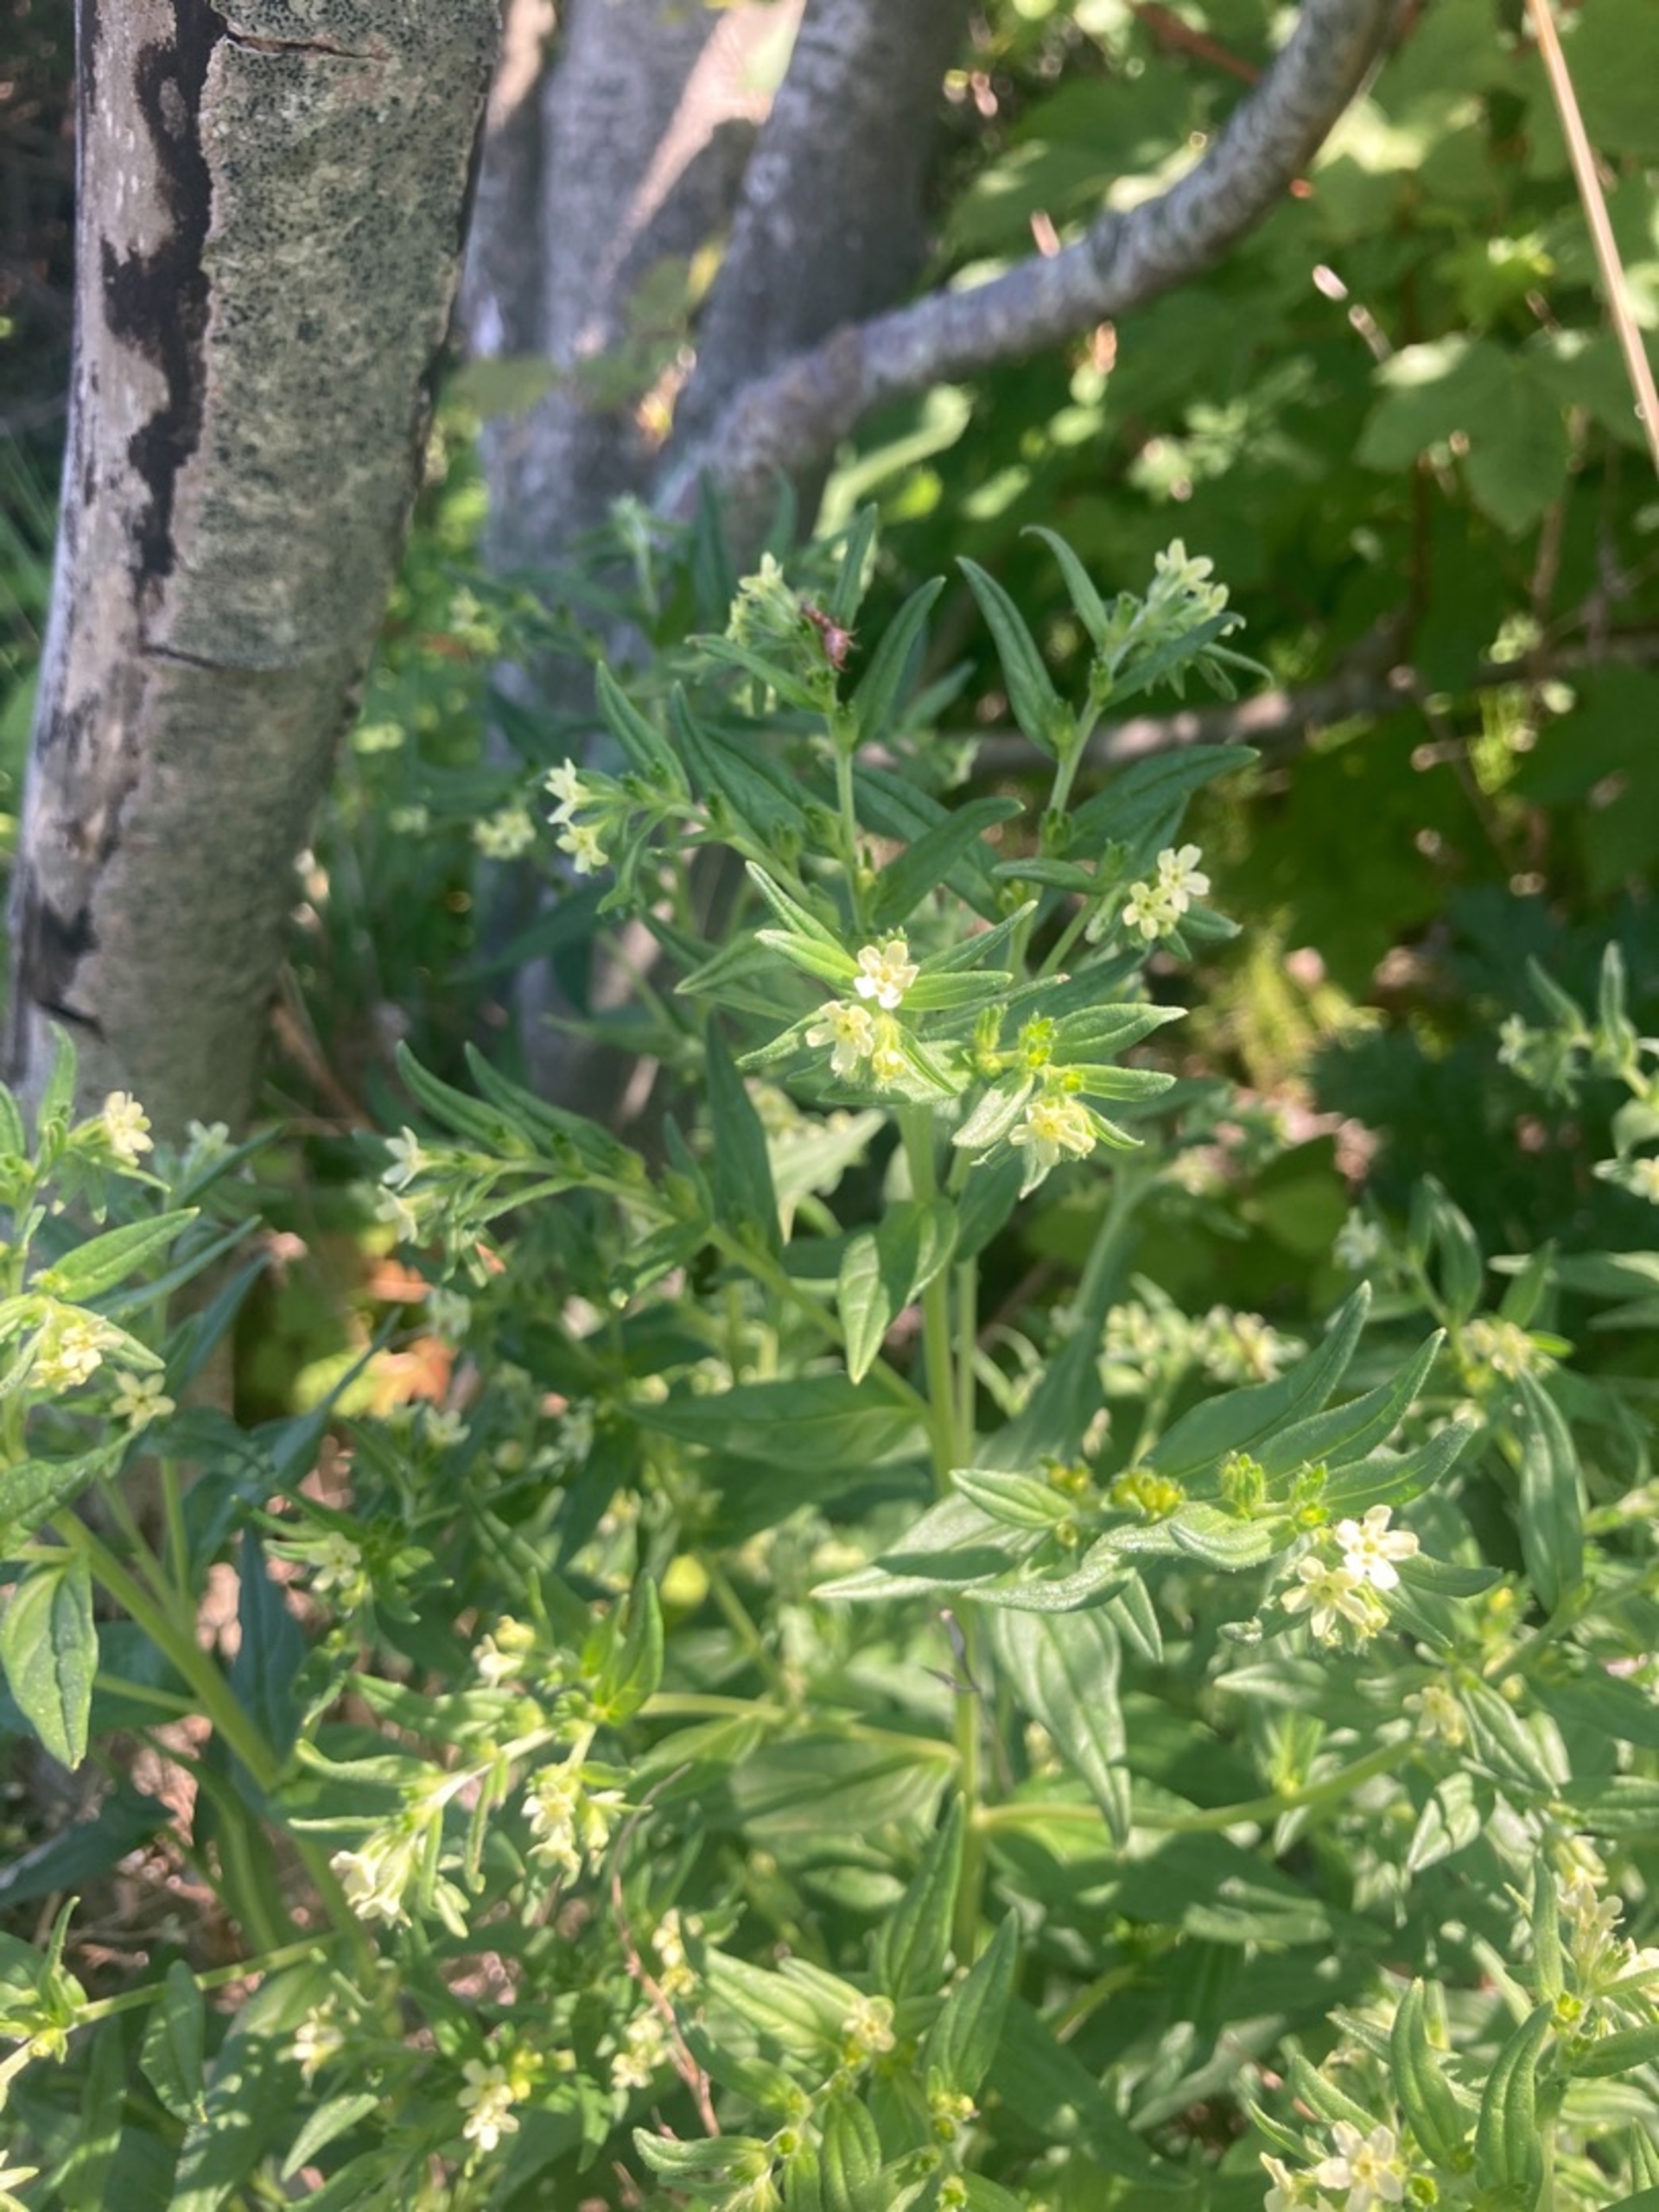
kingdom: Plantae
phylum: Tracheophyta
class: Magnoliopsida
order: Boraginales
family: Boraginaceae
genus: Lithospermum
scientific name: Lithospermum officinale
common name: Læge-stenfrø
